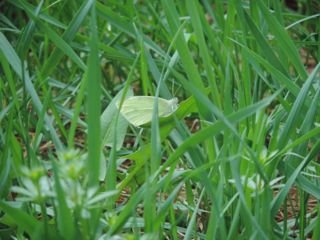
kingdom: Animalia
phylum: Arthropoda
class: Insecta
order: Lepidoptera
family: Pieridae
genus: Pieris
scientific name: Pieris rapae
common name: Cabbage White
